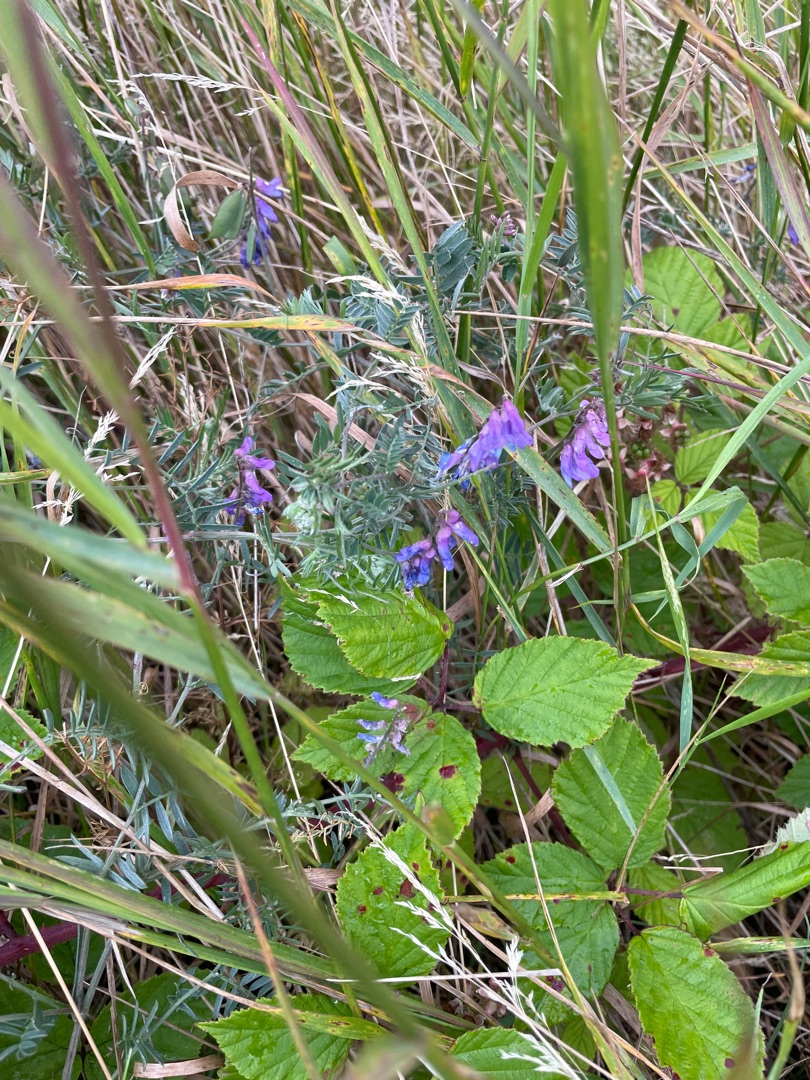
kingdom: Plantae
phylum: Tracheophyta
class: Magnoliopsida
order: Fabales
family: Fabaceae
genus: Vicia
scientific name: Vicia cracca
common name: Muse-vikke
